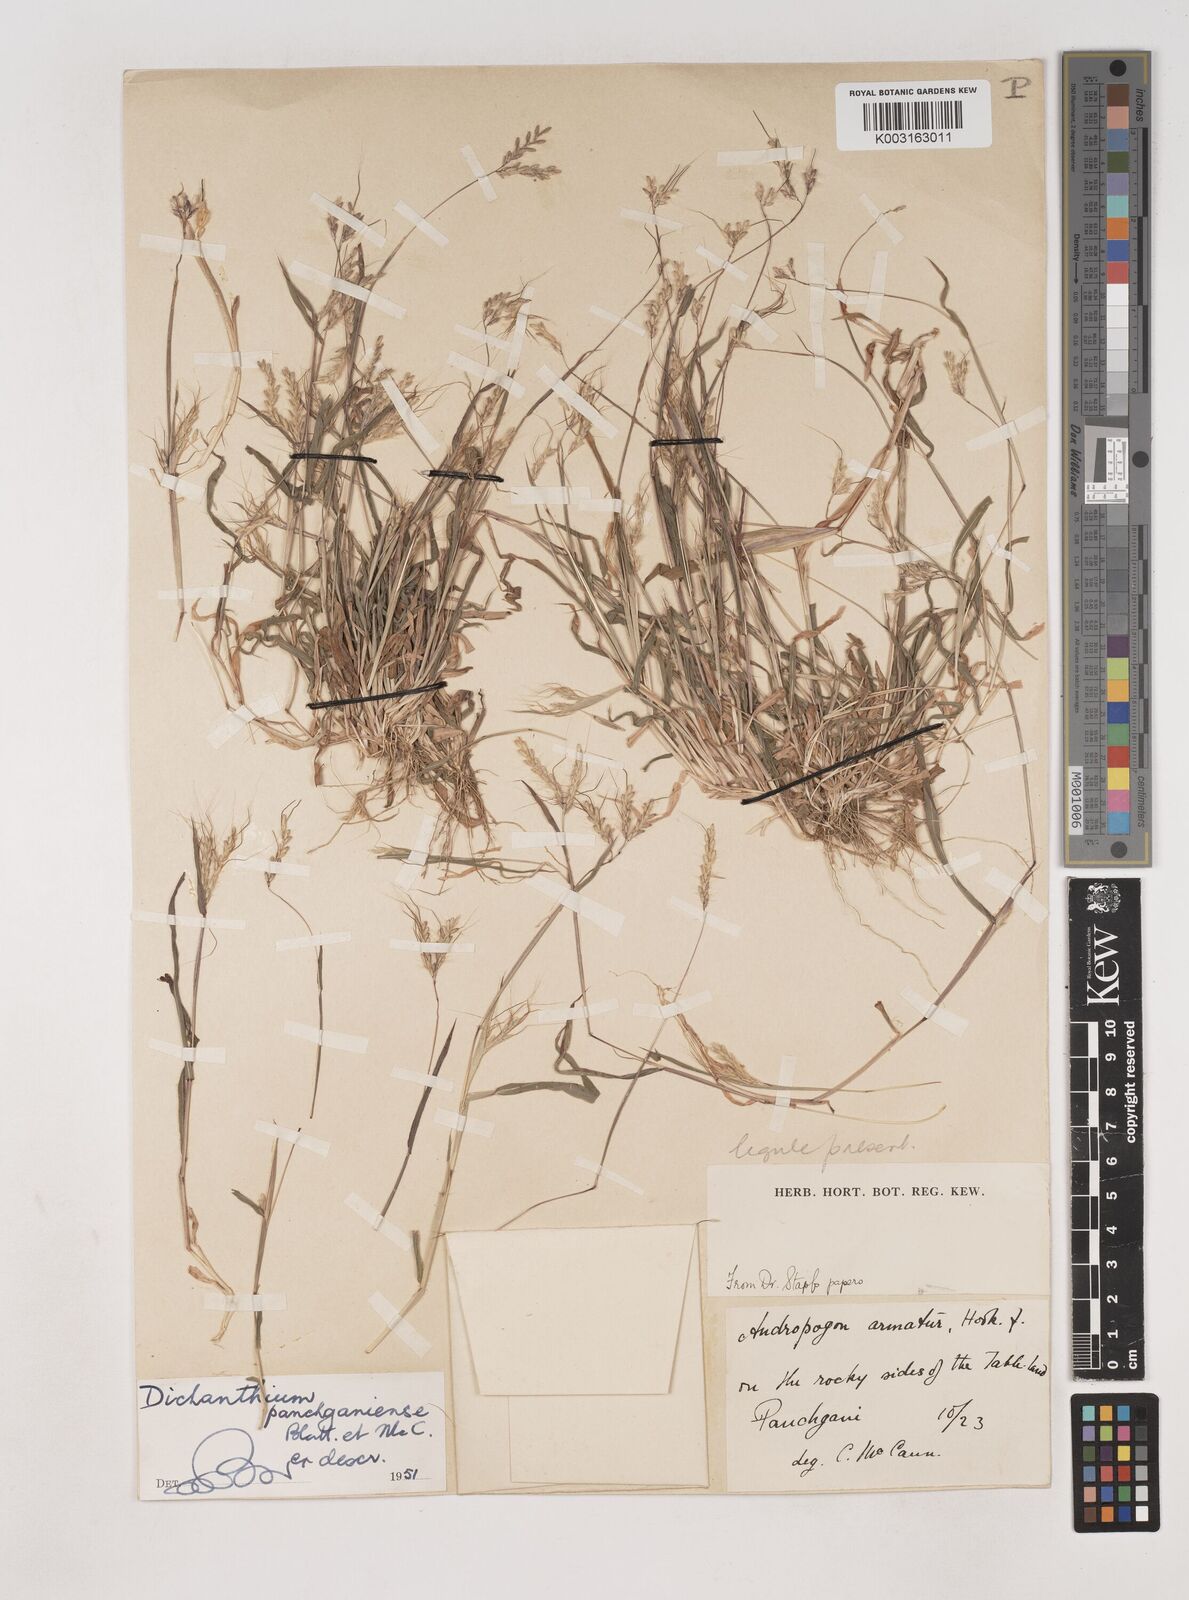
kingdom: Plantae
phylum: Tracheophyta
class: Liliopsida
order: Poales
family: Poaceae
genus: Dichanthium
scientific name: Dichanthium panchganiense
